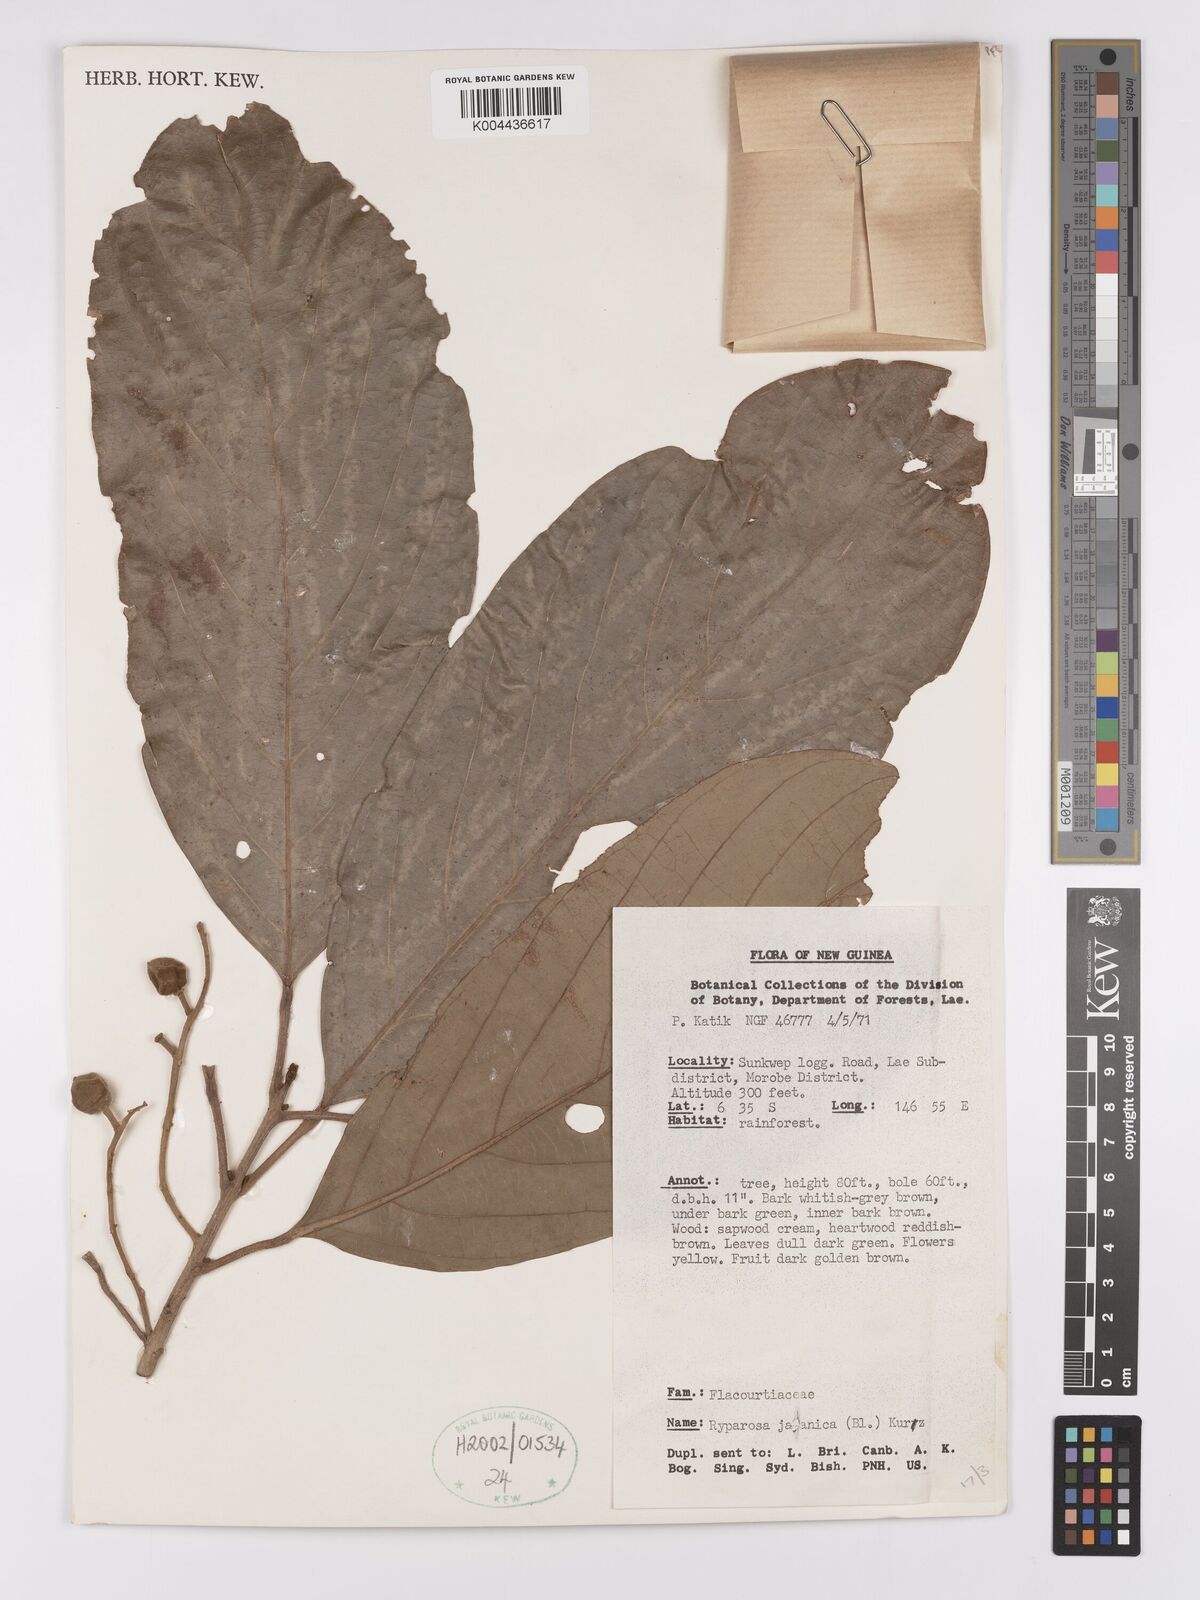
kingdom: Plantae
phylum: Tracheophyta
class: Magnoliopsida
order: Malpighiales
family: Achariaceae
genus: Ryparosa
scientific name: Ryparosa javanica
